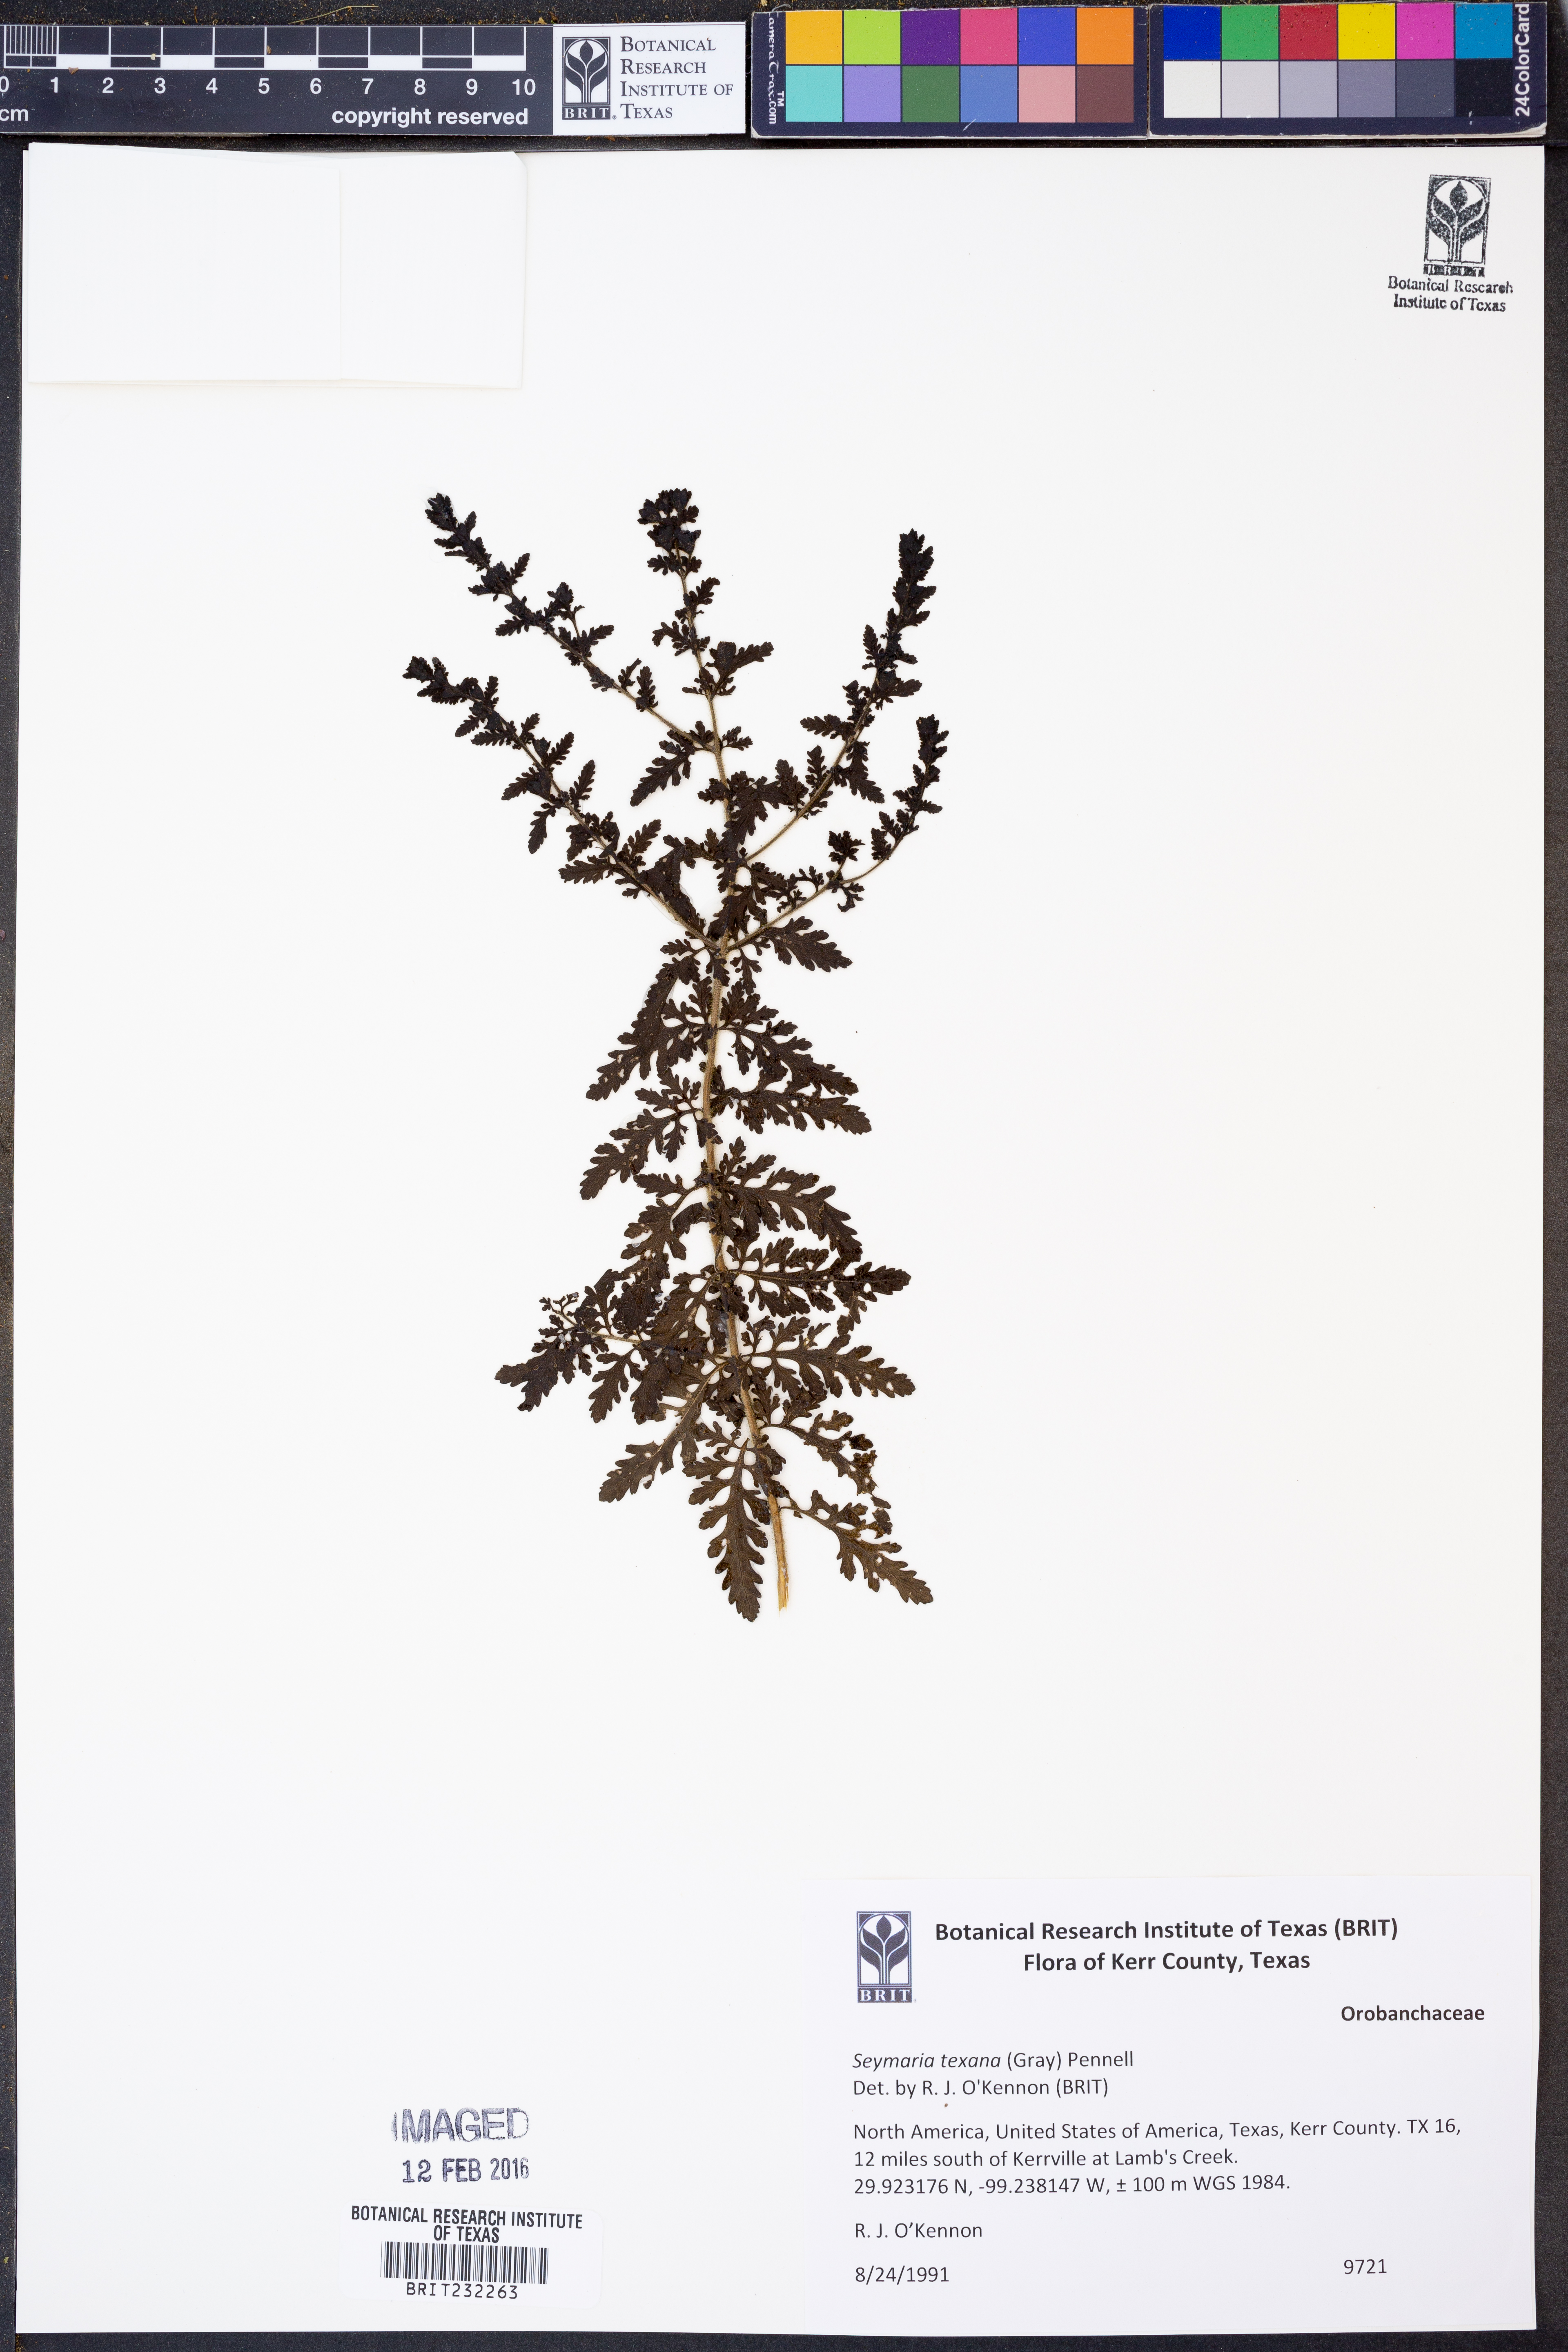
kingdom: Plantae
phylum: Tracheophyta
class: Magnoliopsida
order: Lamiales
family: Orobanchaceae
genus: Seymeria
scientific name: Seymeria bipinnatisecta
